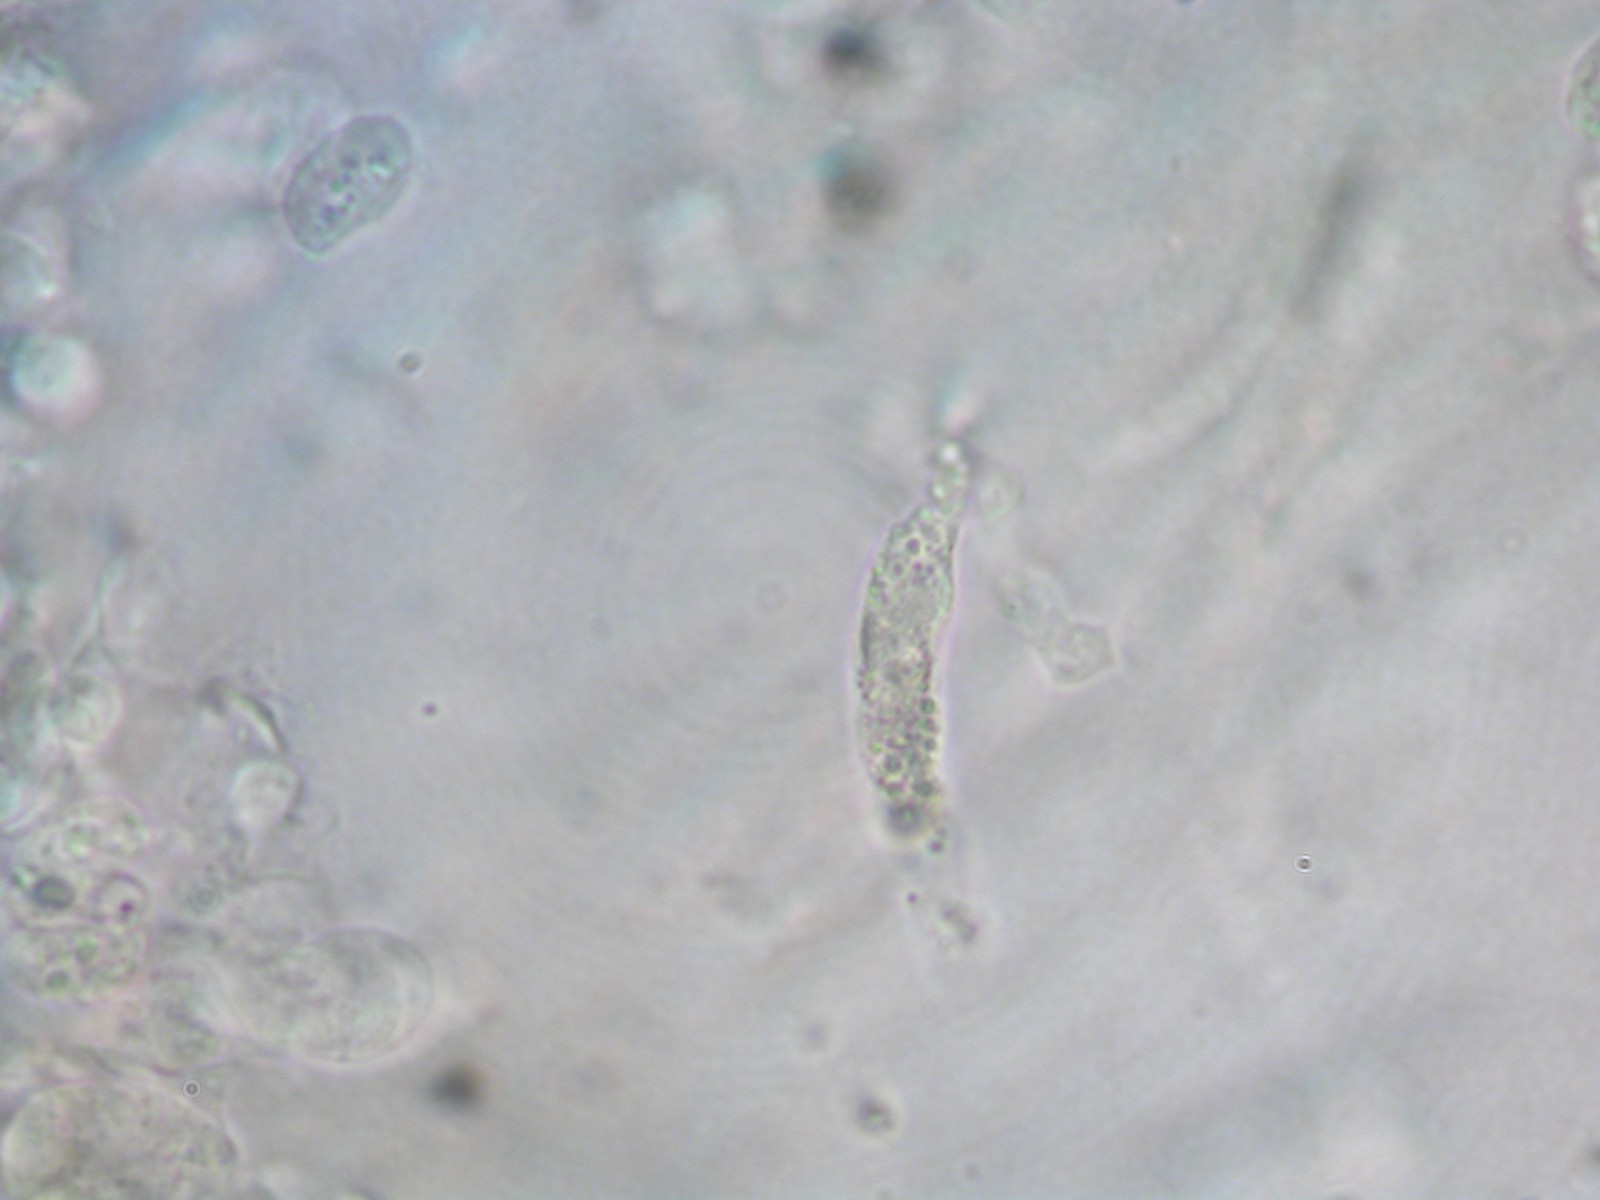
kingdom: Fungi
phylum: Basidiomycota
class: Agaricomycetes
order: Agaricales
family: Entolomataceae
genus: Clitopilus
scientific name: Clitopilus caelatus
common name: gråbrun troldhat
